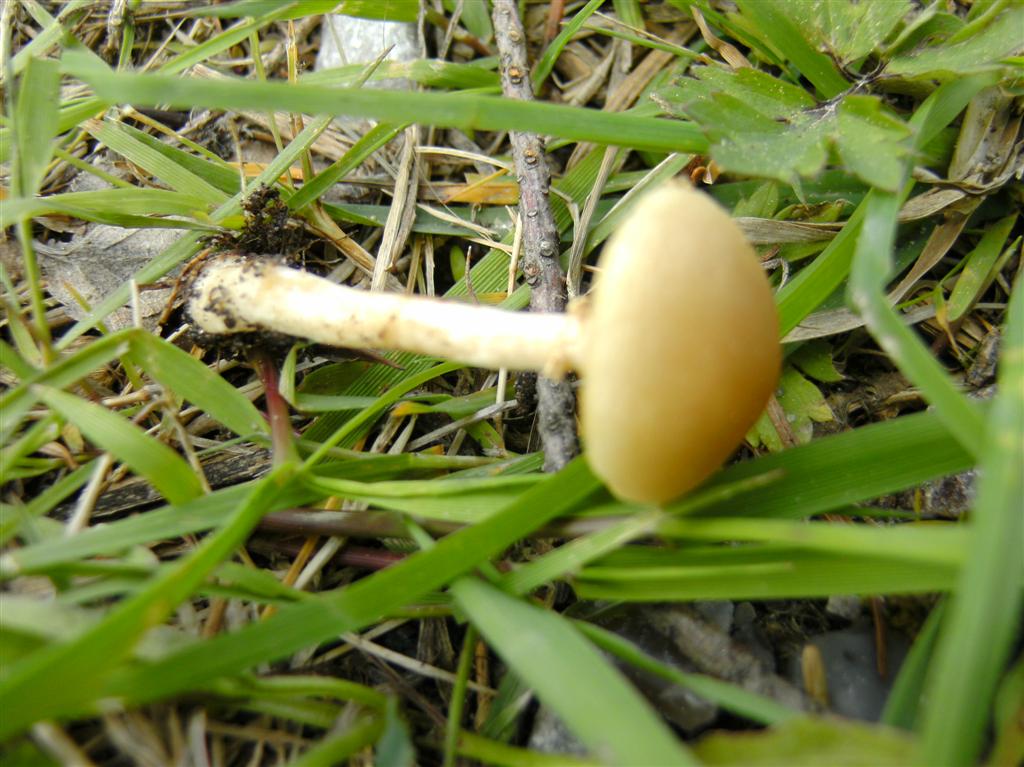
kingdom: Fungi
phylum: Basidiomycota
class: Agaricomycetes
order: Agaricales
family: Strophariaceae
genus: Agrocybe
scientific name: Agrocybe praecox
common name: tidlig agerhat
